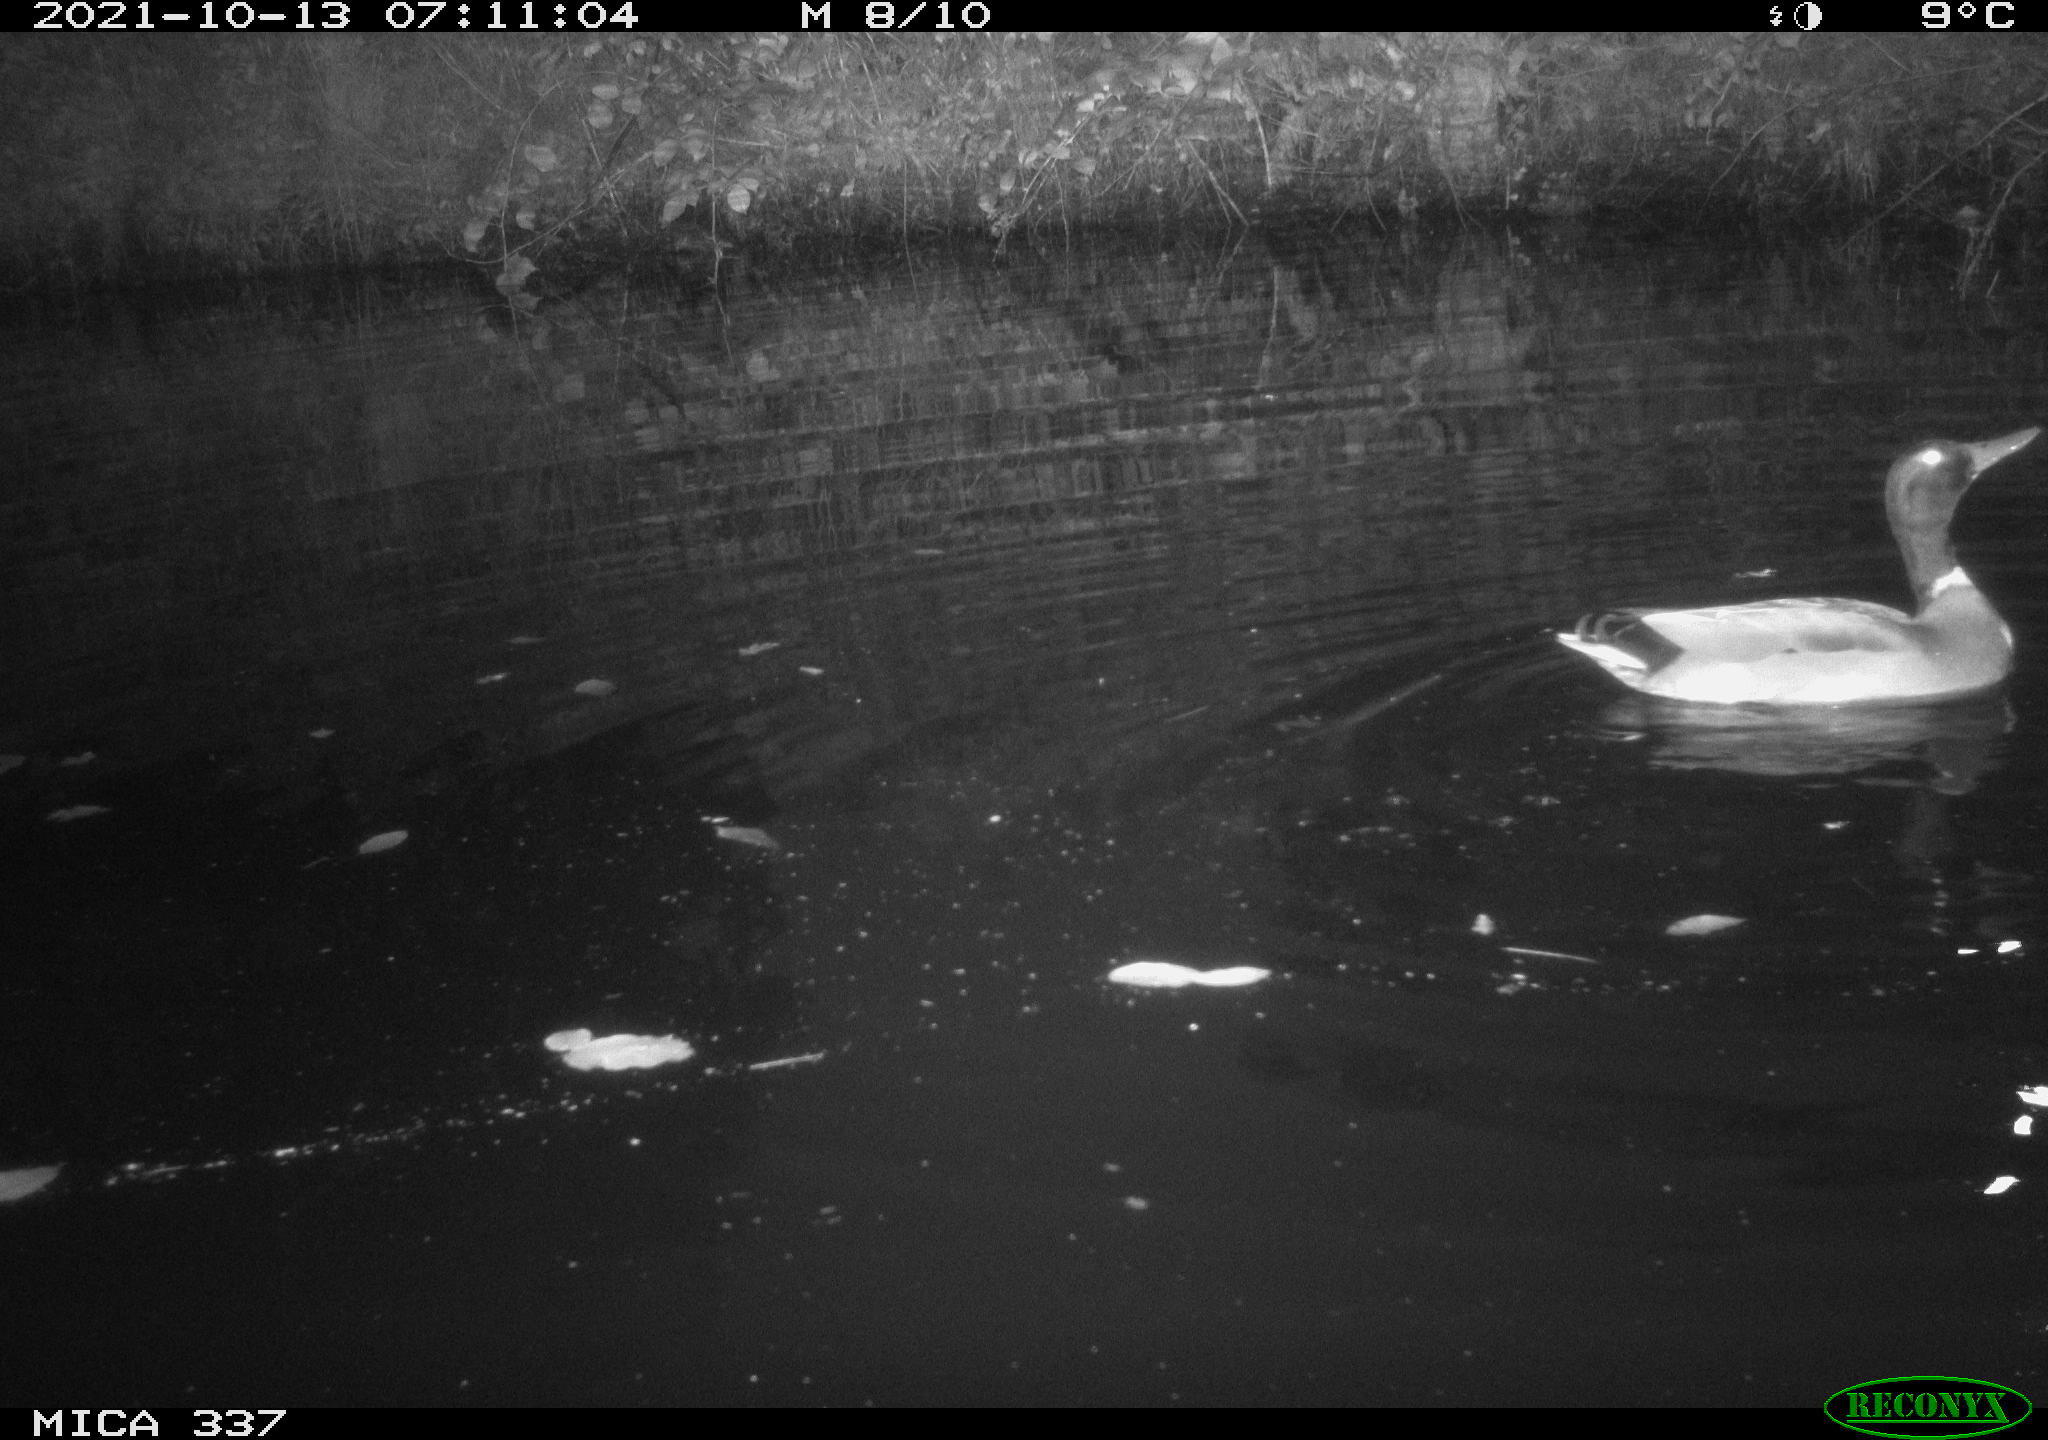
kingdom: Animalia
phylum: Chordata
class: Aves
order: Anseriformes
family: Anatidae
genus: Anas
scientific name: Anas platyrhynchos
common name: Mallard
